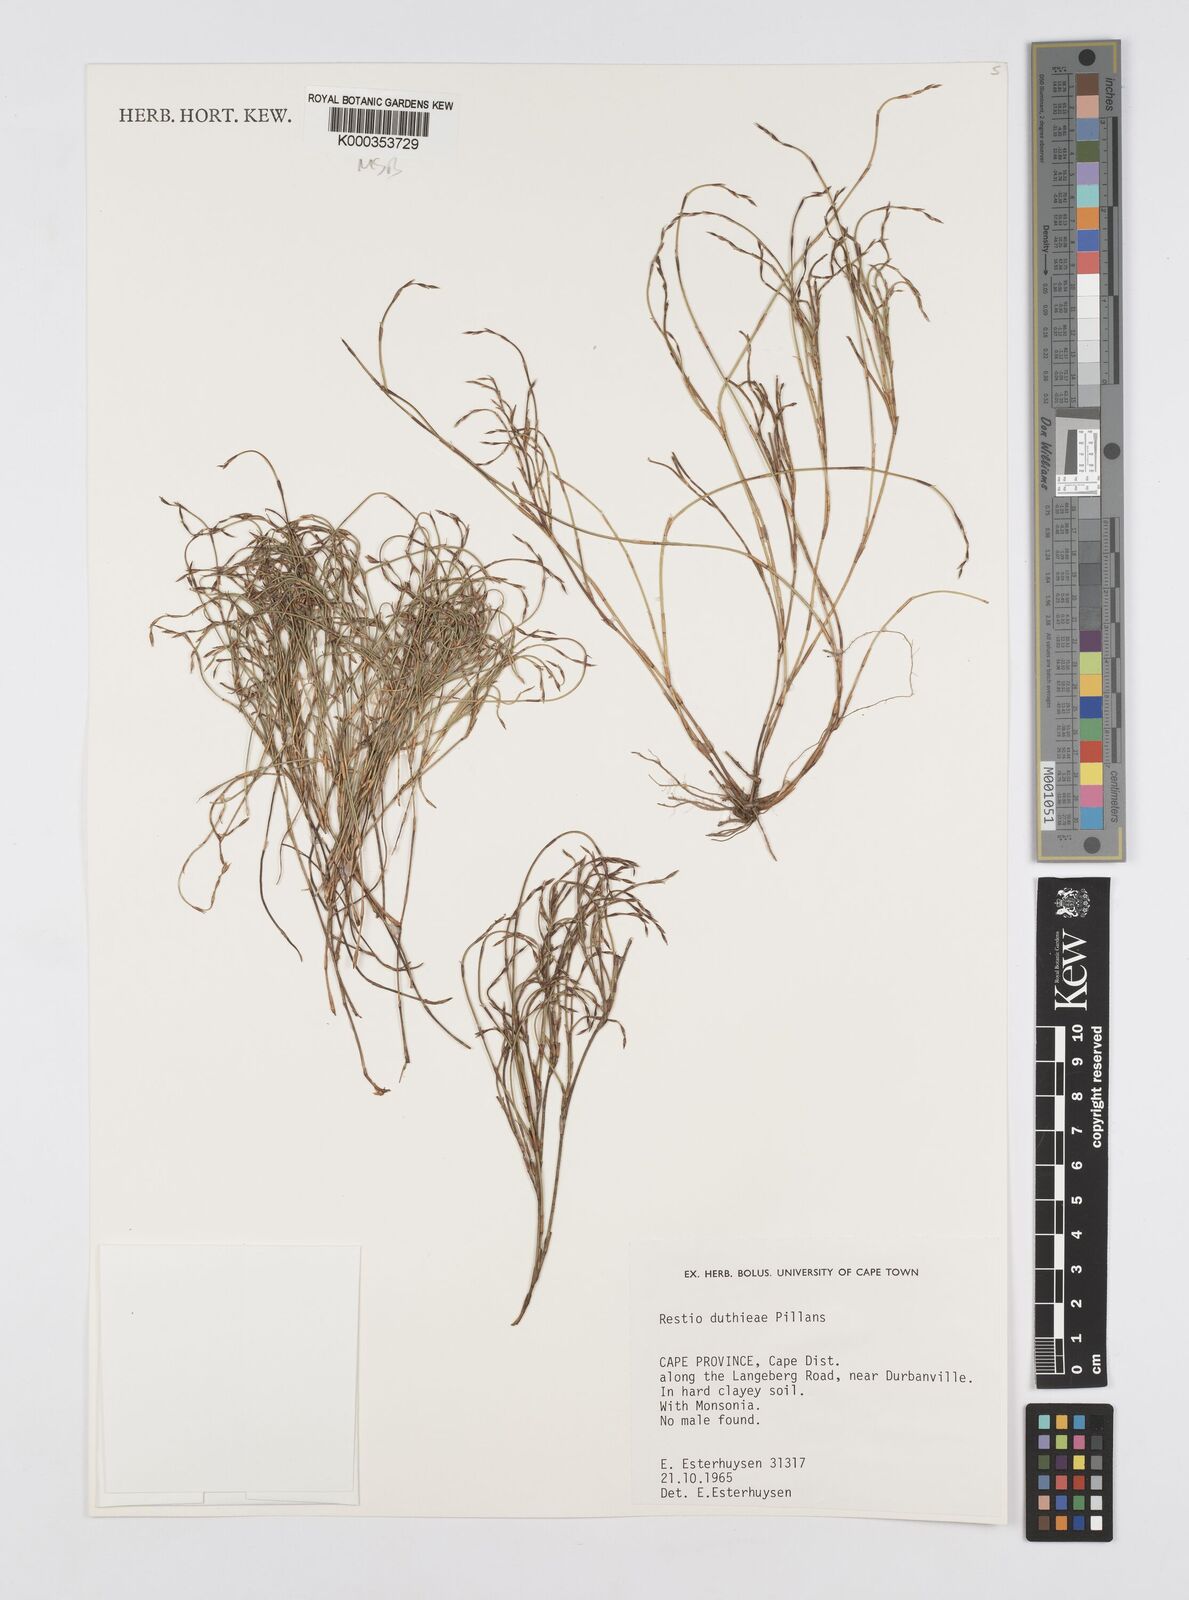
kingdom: Plantae
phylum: Tracheophyta
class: Liliopsida
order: Poales
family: Restionaceae
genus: Restio
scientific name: Restio duthieae
